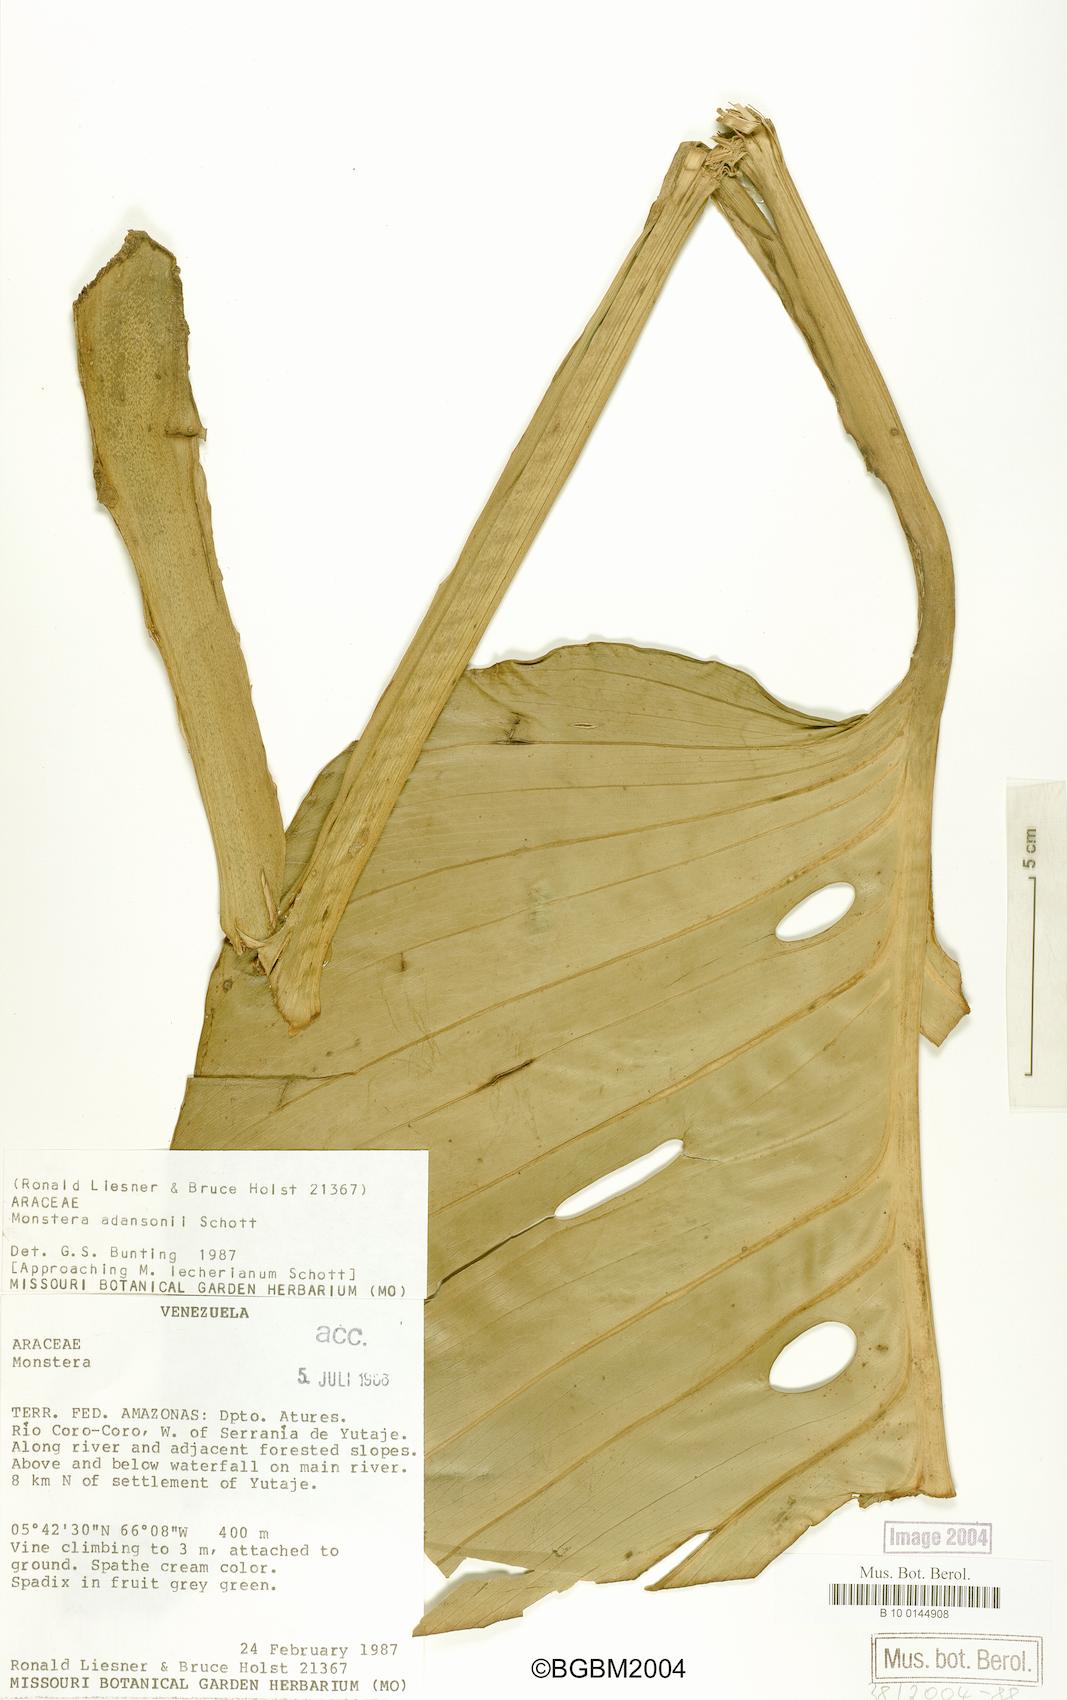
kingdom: Plantae
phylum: Tracheophyta
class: Liliopsida
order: Alismatales
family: Araceae
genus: Monstera
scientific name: Monstera adansonii
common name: Tarovine
